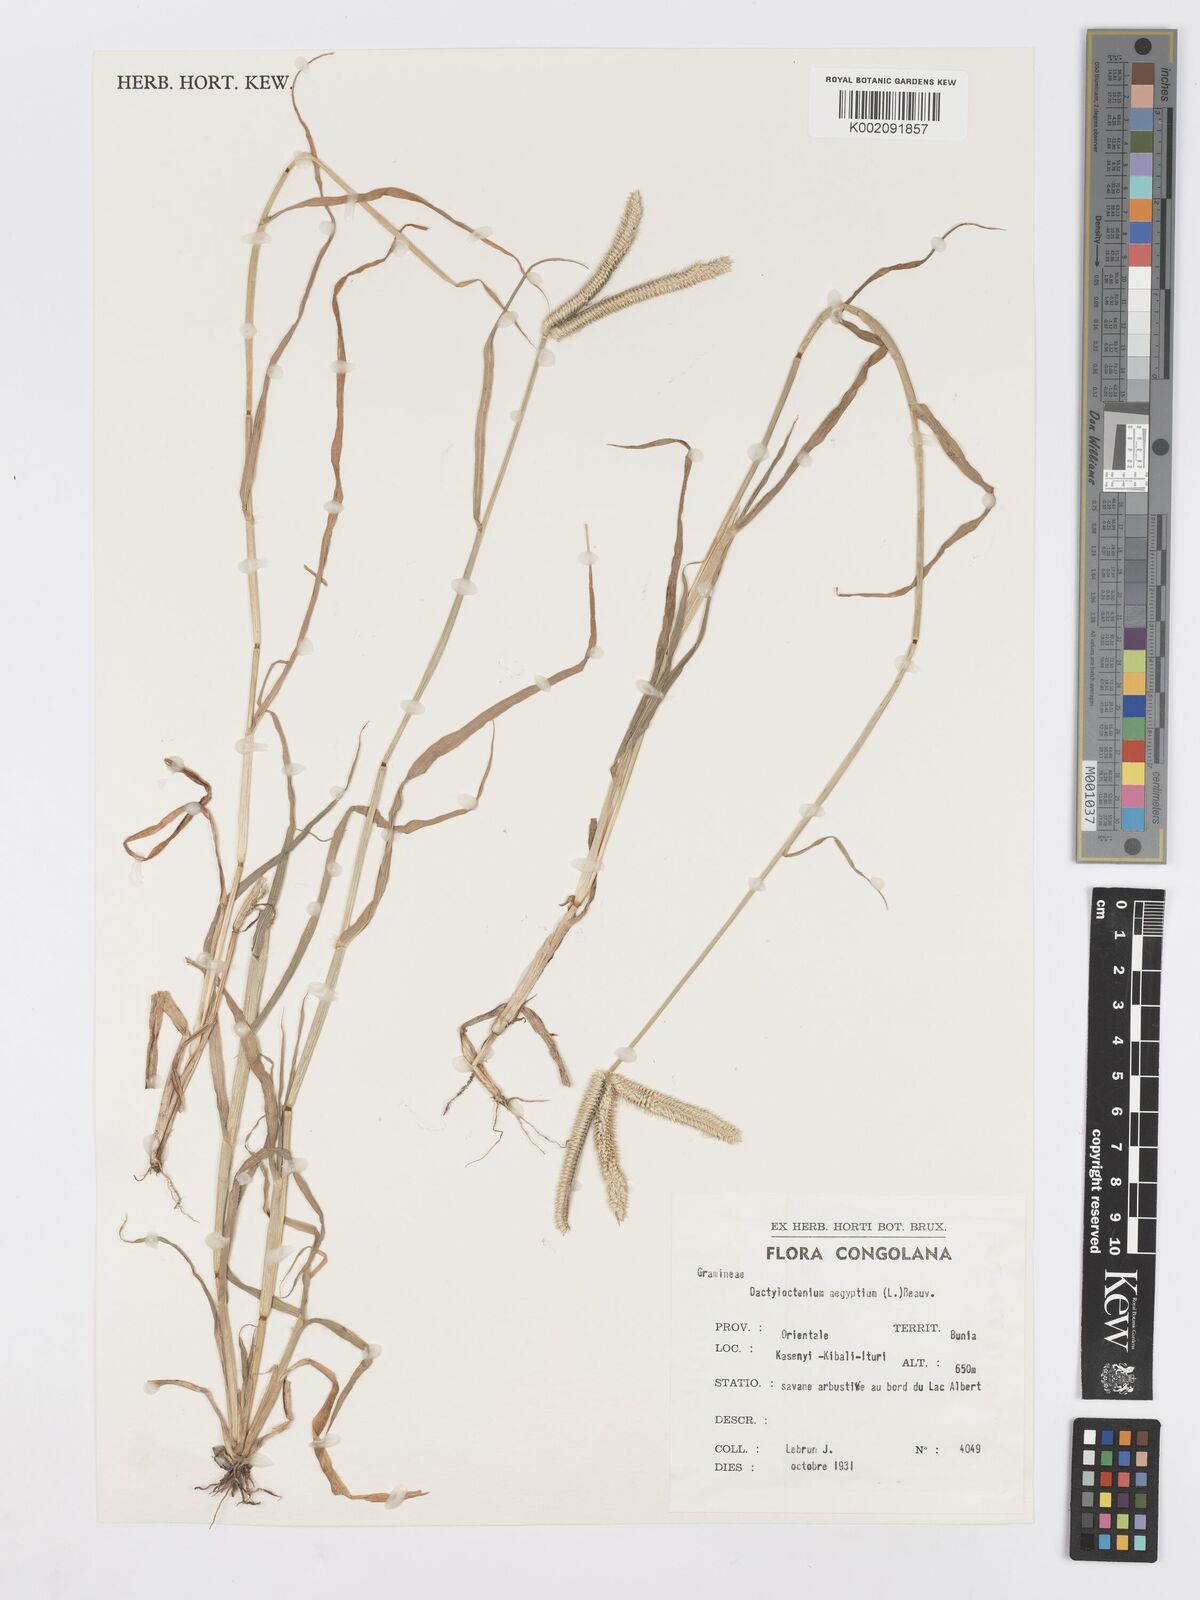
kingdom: Plantae
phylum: Tracheophyta
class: Liliopsida
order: Poales
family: Poaceae
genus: Dactyloctenium
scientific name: Dactyloctenium aegyptium
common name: Egyptian grass
